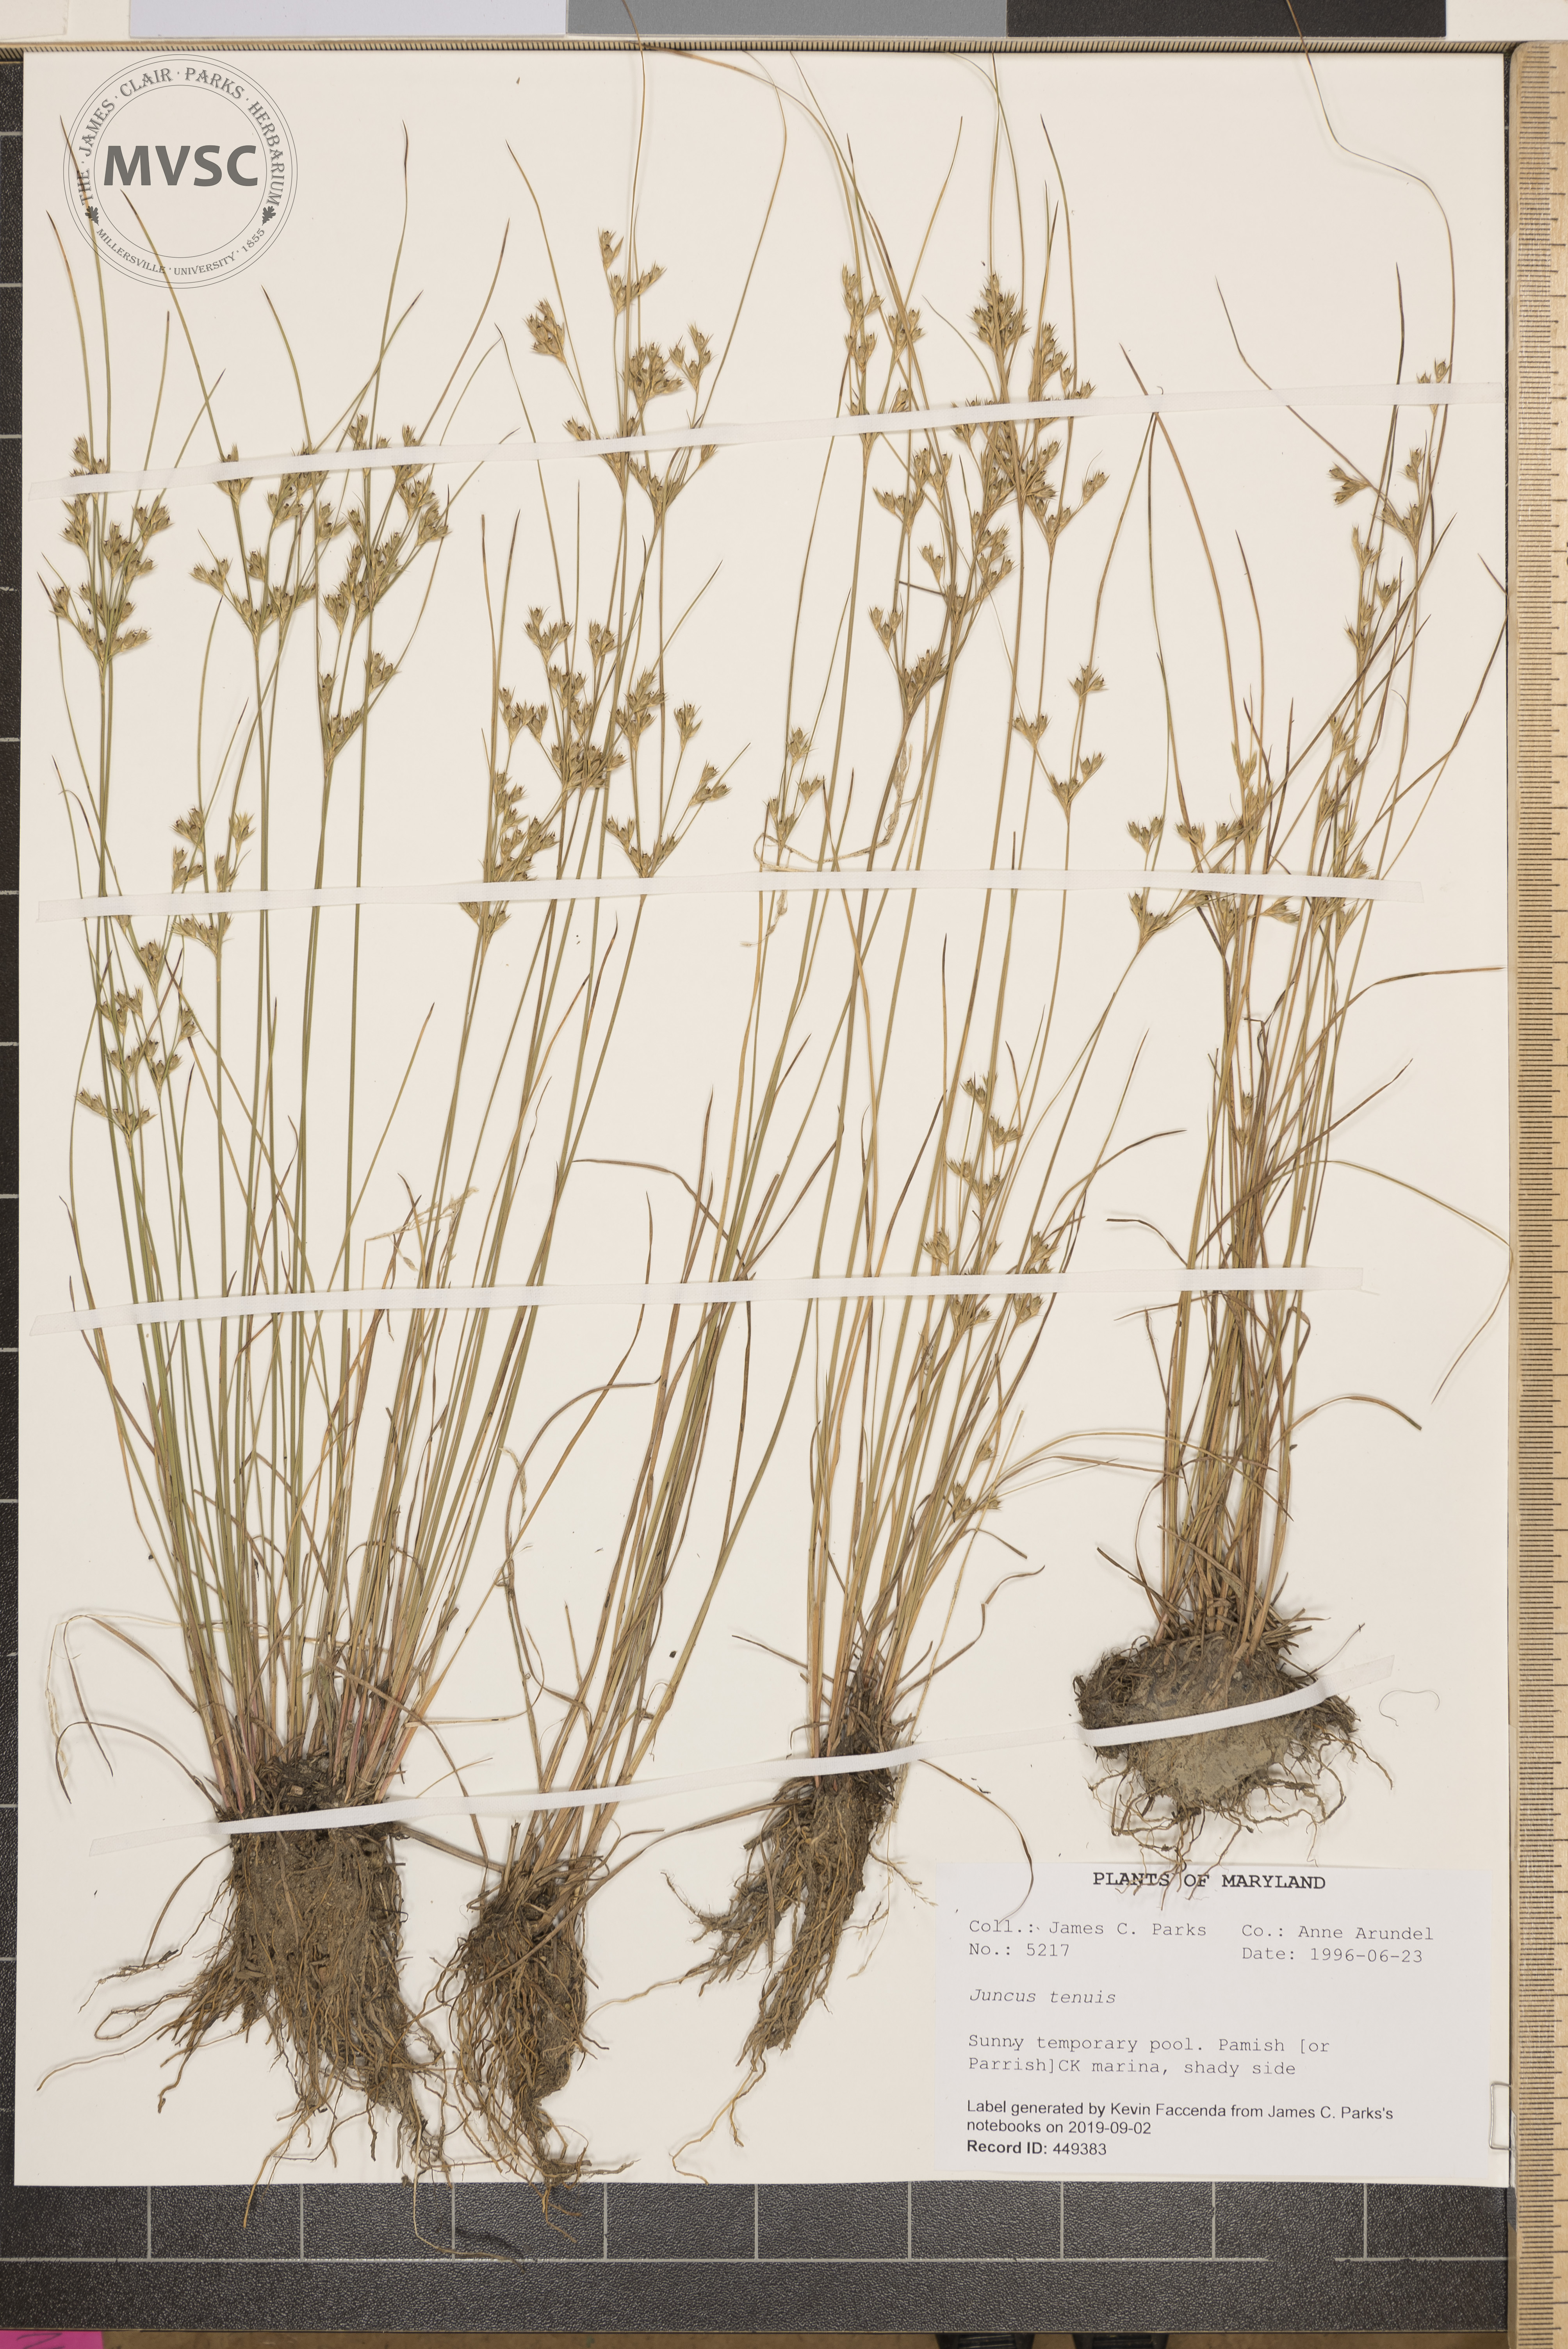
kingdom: Plantae
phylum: Tracheophyta
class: Liliopsida
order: Poales
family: Juncaceae
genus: Juncus
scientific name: Juncus tenuis
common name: Slender rush
